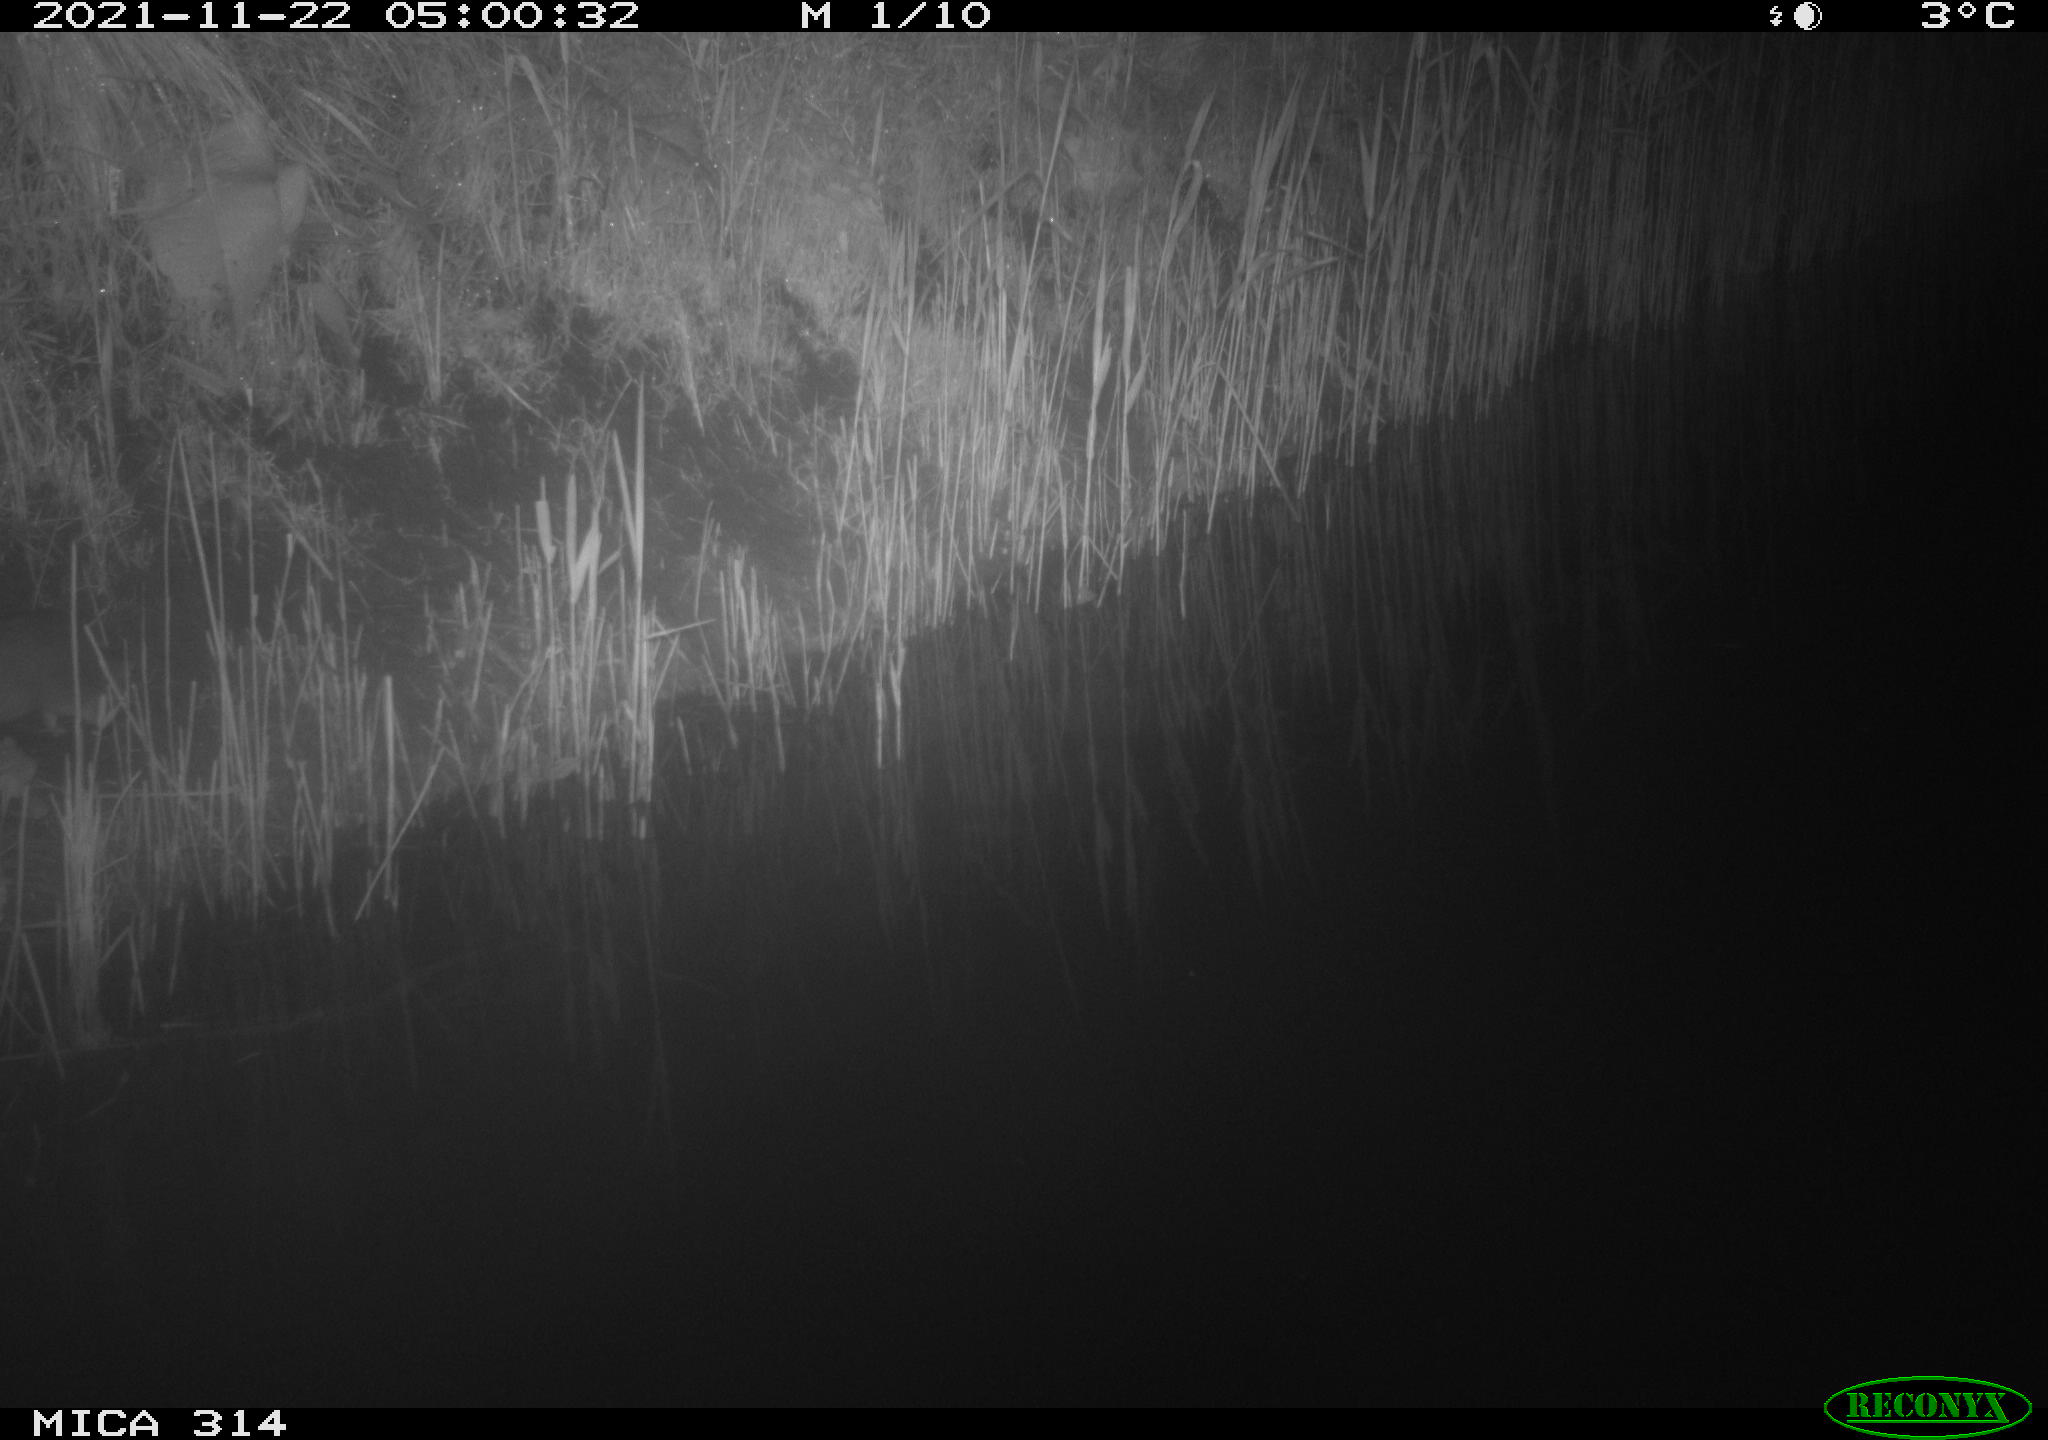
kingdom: Animalia
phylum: Chordata
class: Mammalia
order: Rodentia
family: Muridae
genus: Rattus
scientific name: Rattus norvegicus
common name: Brown rat
